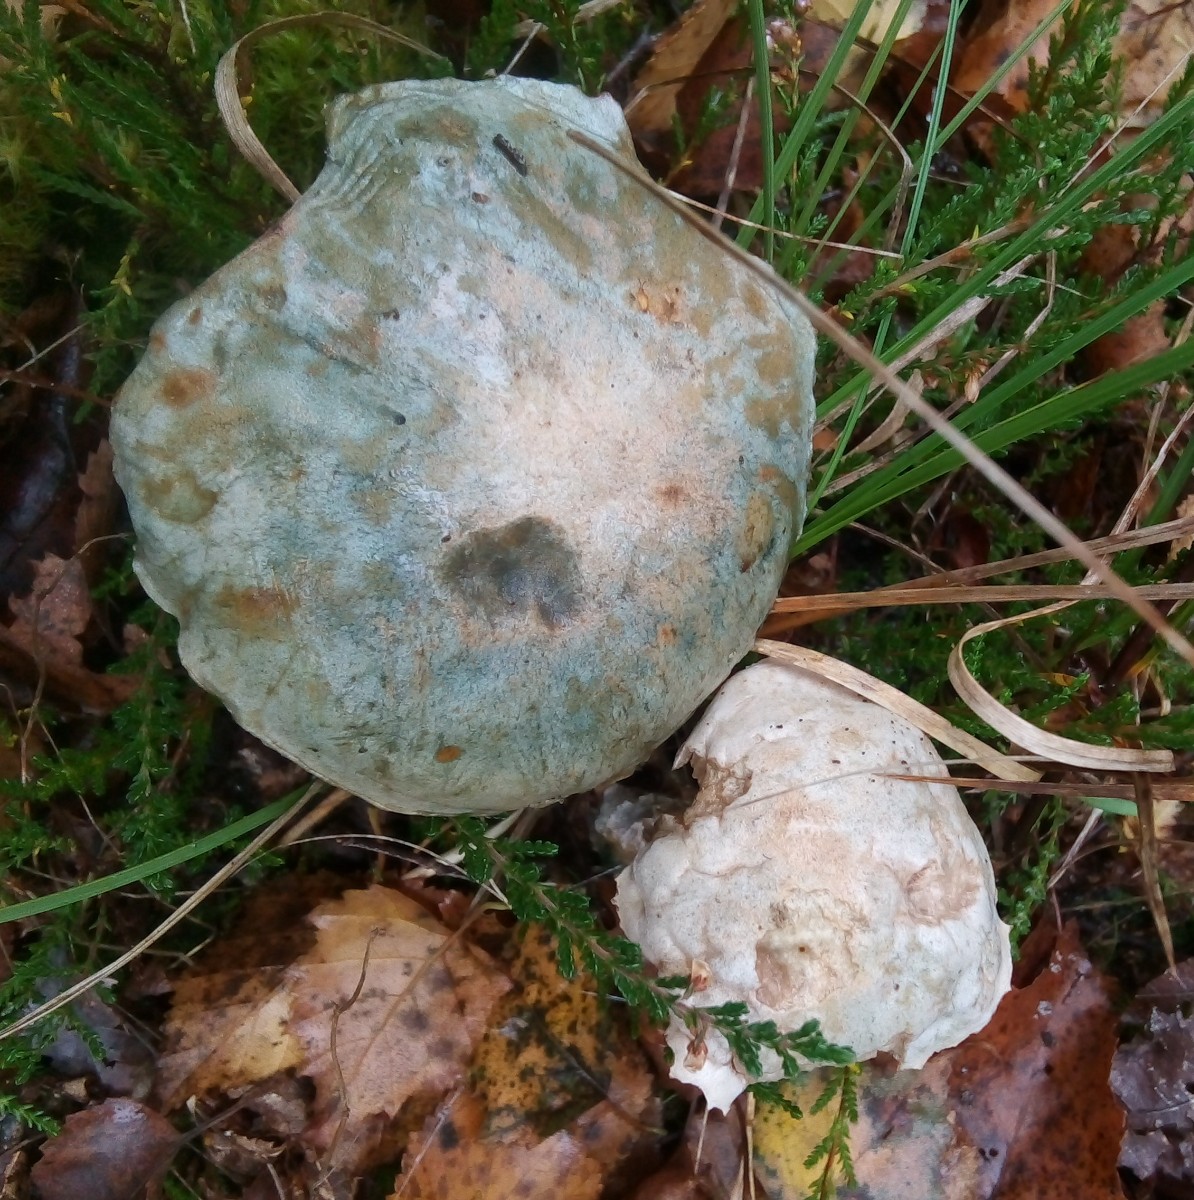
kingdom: Fungi
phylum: Basidiomycota
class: Agaricomycetes
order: Boletales
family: Boletaceae
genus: Leccinum
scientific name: Leccinum scabrum
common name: hvid skælrørhat
